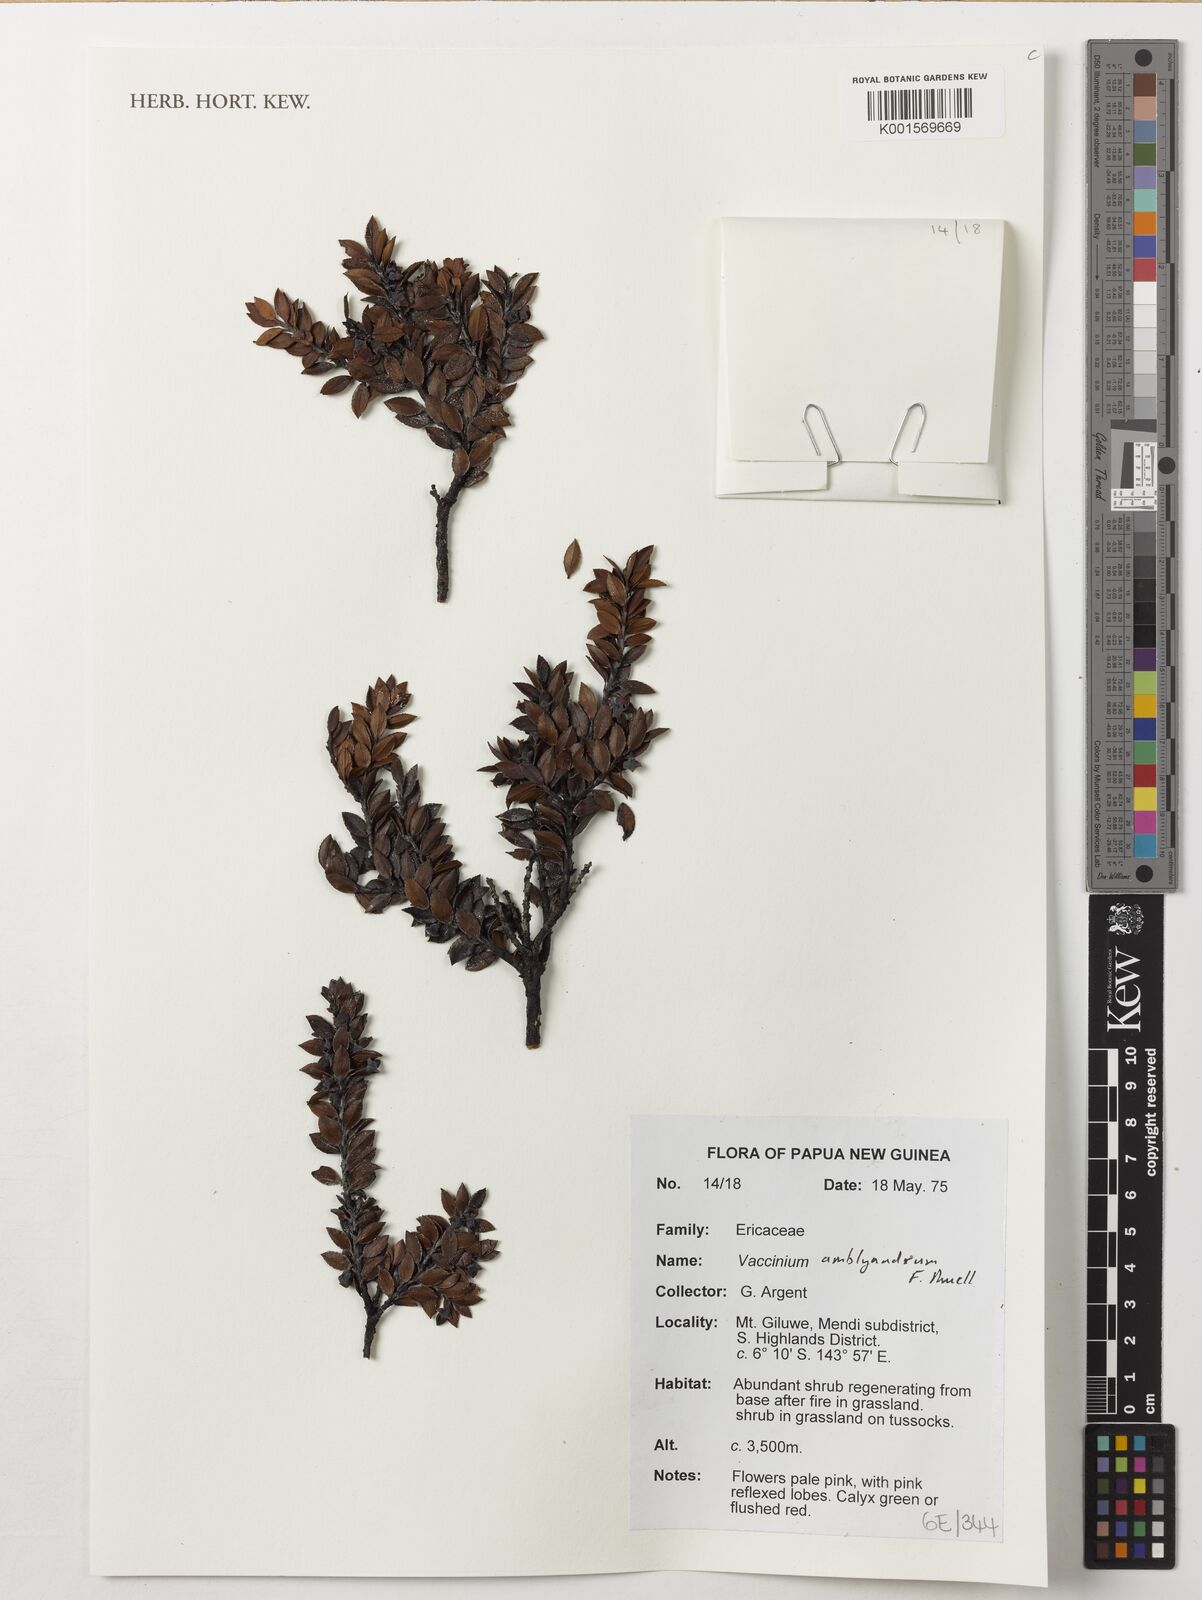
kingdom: Plantae
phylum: Tracheophyta
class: Magnoliopsida
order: Ericales
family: Ericaceae
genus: Vaccinium
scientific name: Vaccinium amblyandrum
